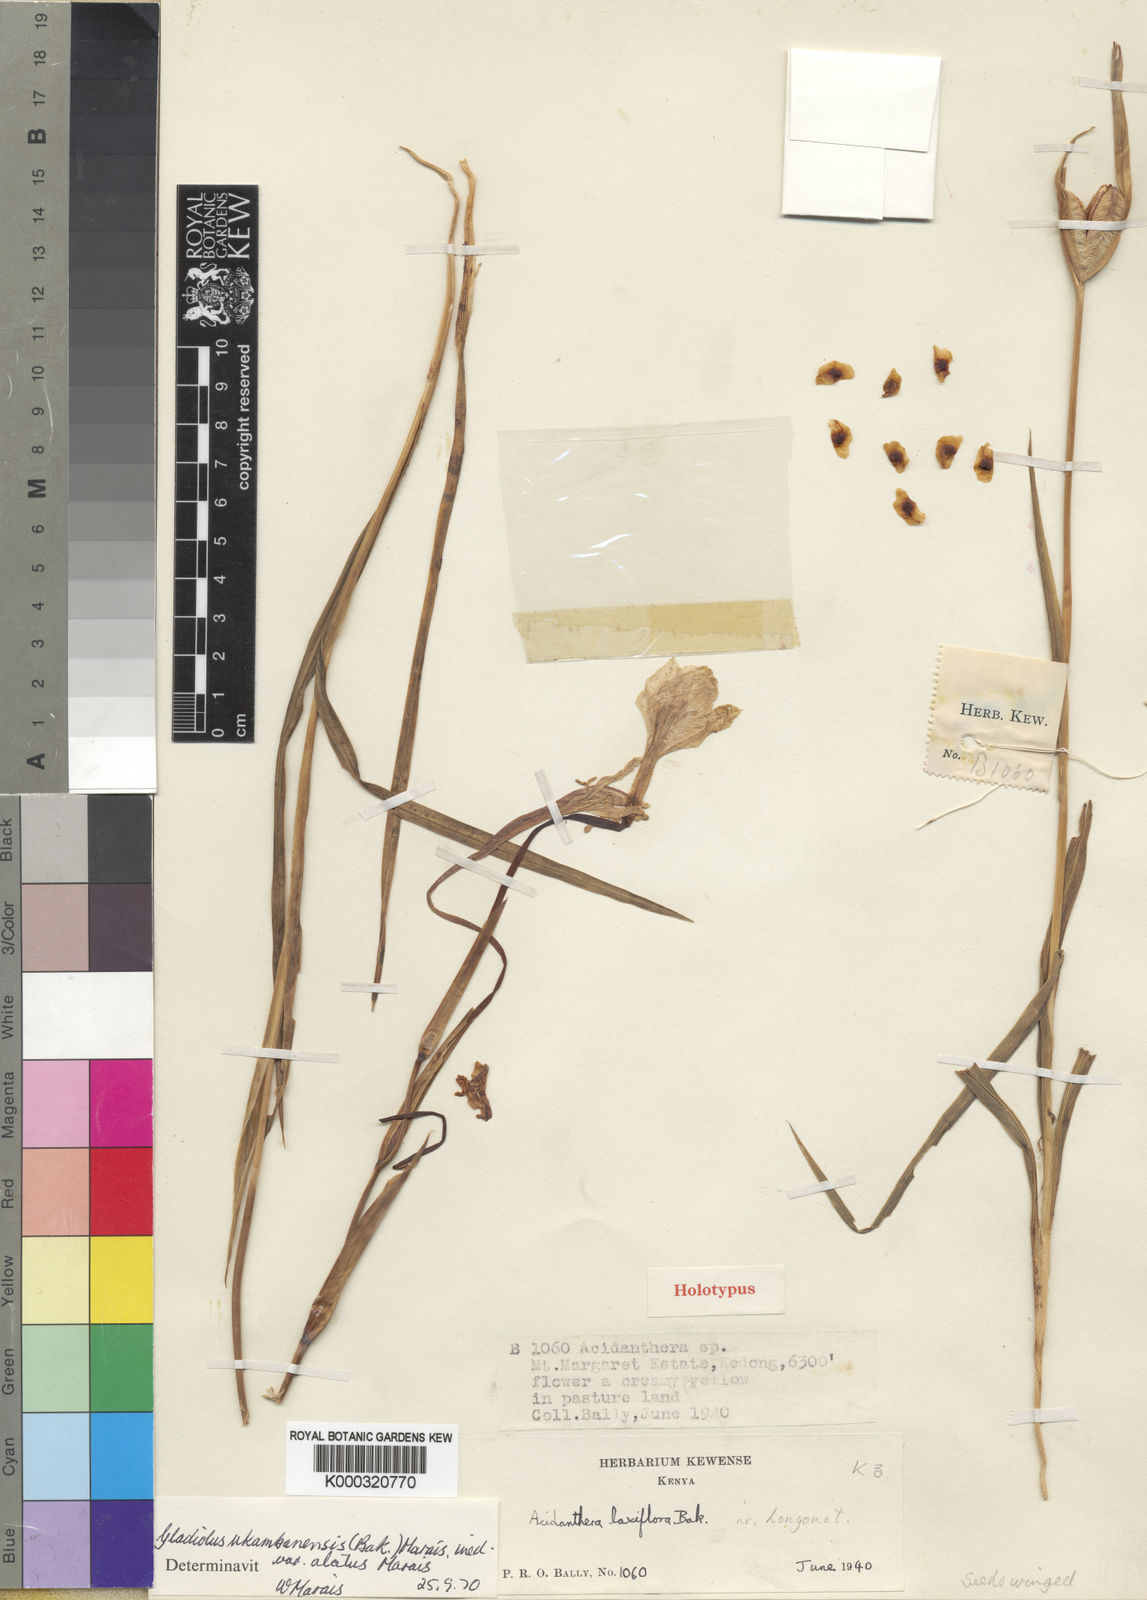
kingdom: Plantae
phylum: Tracheophyta
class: Liliopsida
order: Asparagales
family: Iridaceae
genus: Gladiolus
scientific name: Gladiolus candidus
